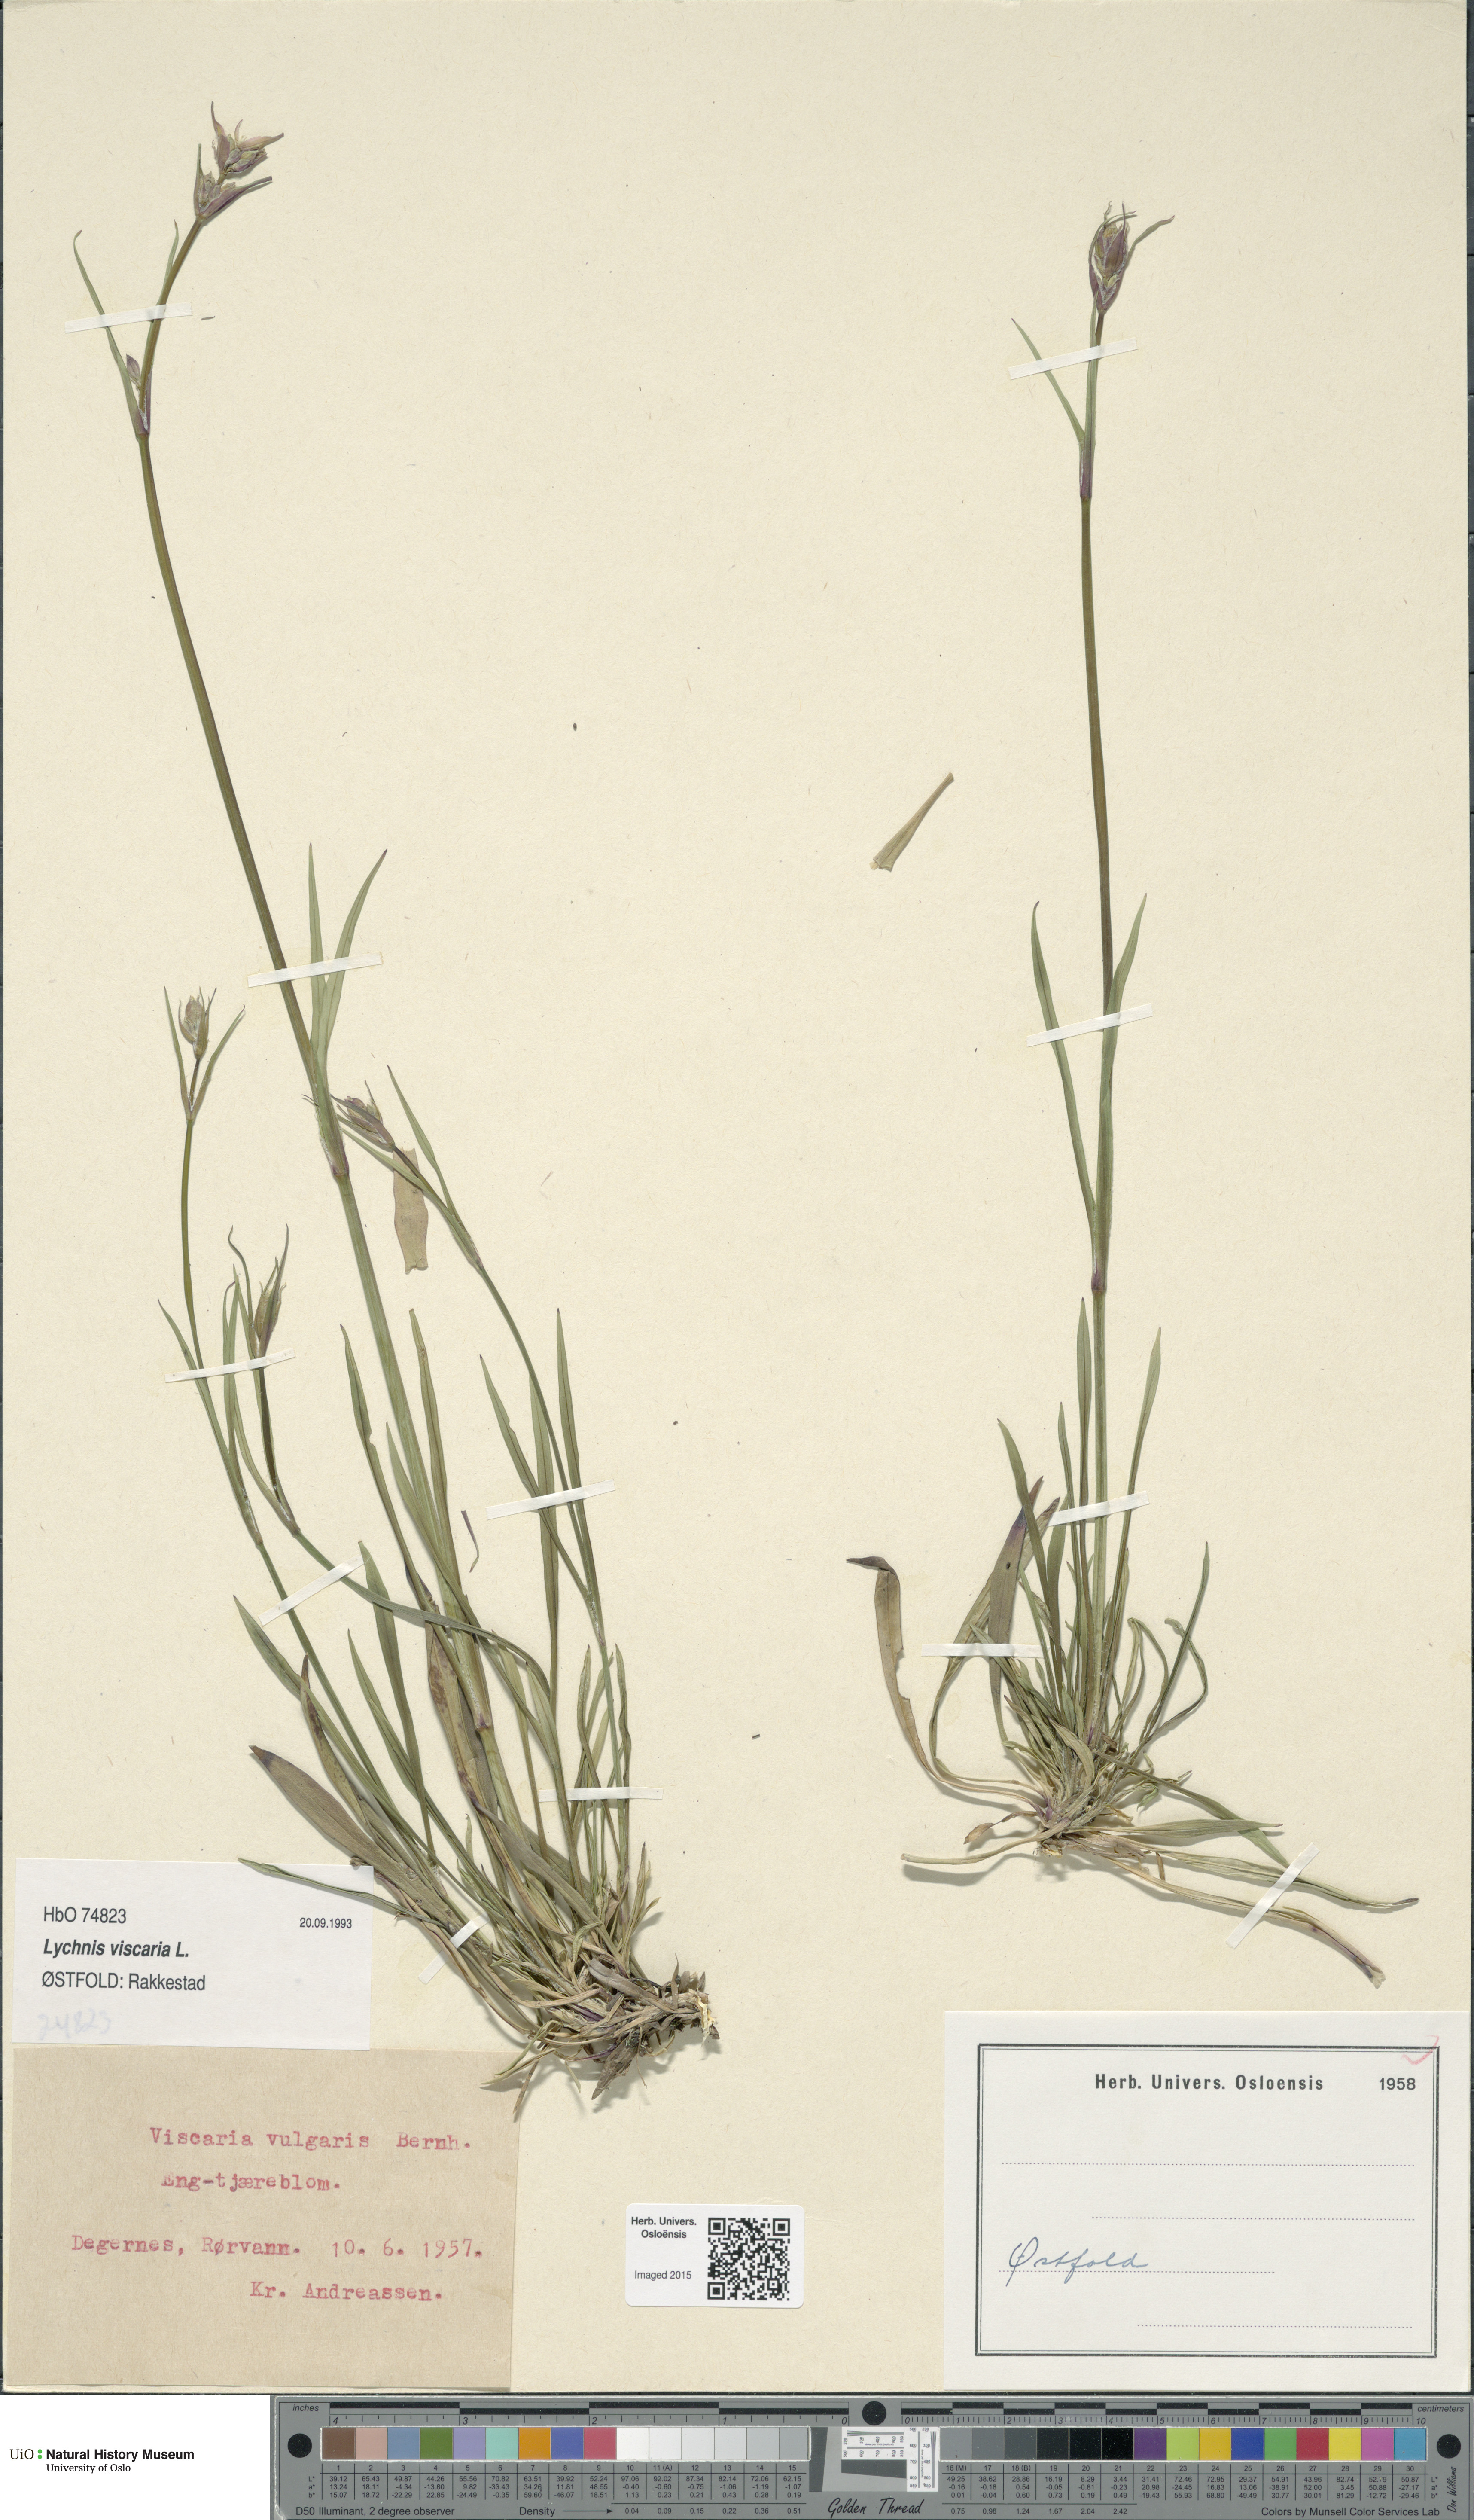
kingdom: Plantae
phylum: Tracheophyta
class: Magnoliopsida
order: Caryophyllales
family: Caryophyllaceae
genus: Viscaria
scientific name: Viscaria vulgaris
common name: Clammy campion
